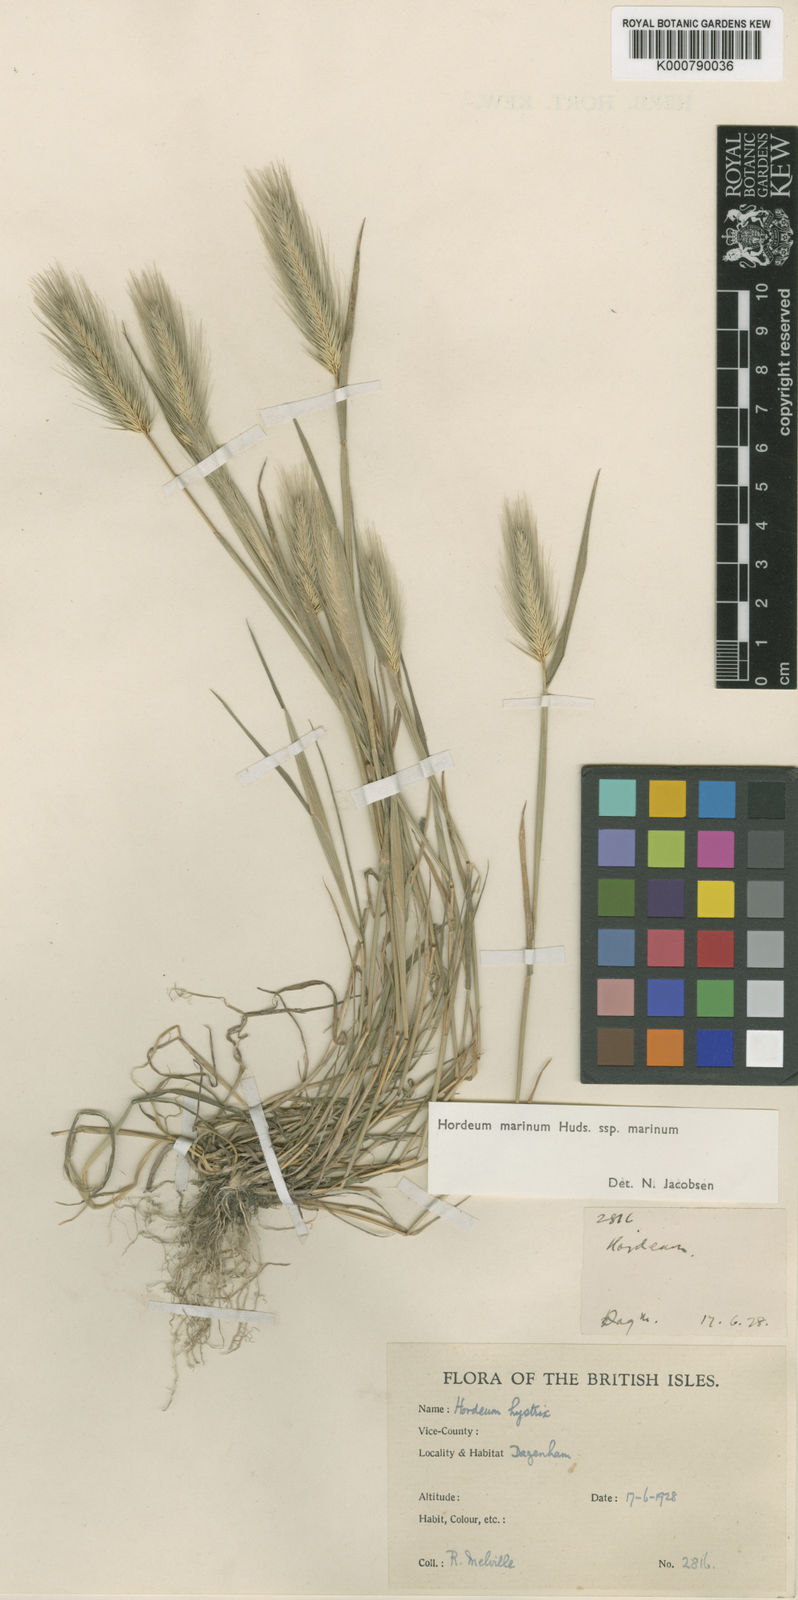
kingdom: Plantae
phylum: Tracheophyta
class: Liliopsida
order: Poales
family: Poaceae
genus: Hordeum
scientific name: Hordeum marinum
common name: Sea barley
